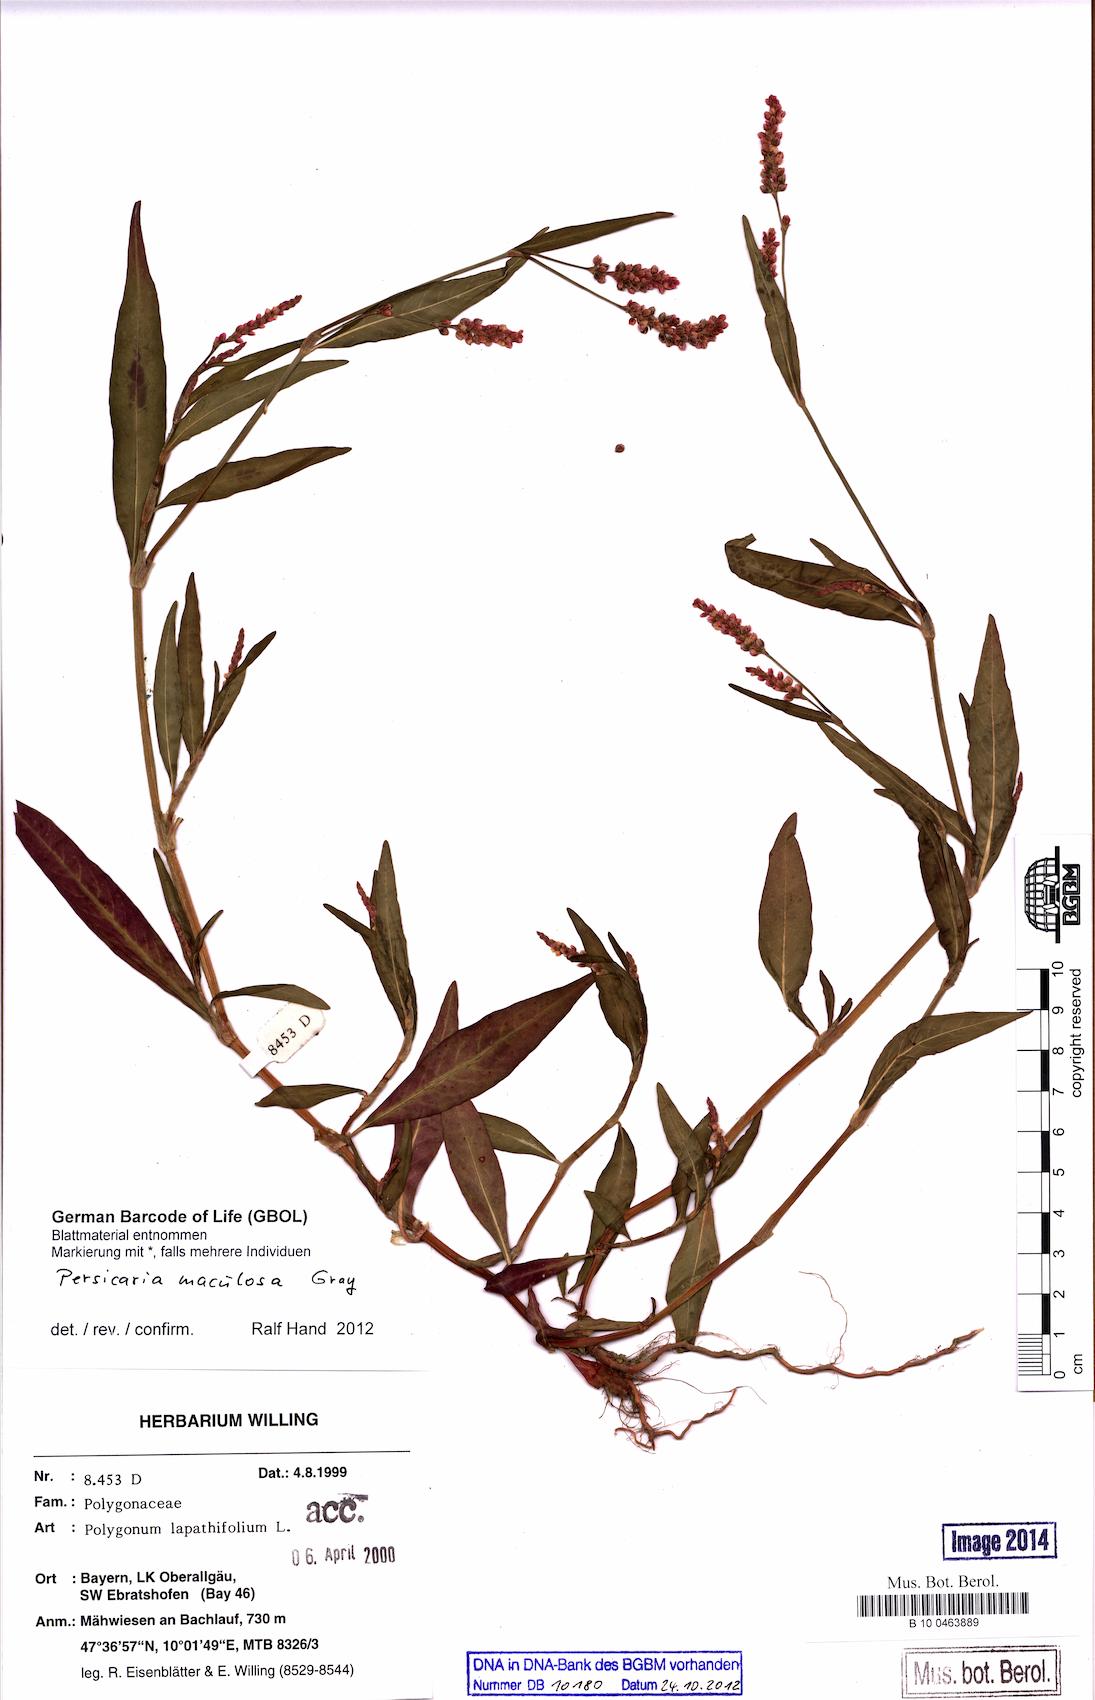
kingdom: Plantae
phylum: Tracheophyta
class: Magnoliopsida
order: Caryophyllales
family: Polygonaceae
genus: Persicaria
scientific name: Persicaria maculosa
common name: Redshank
